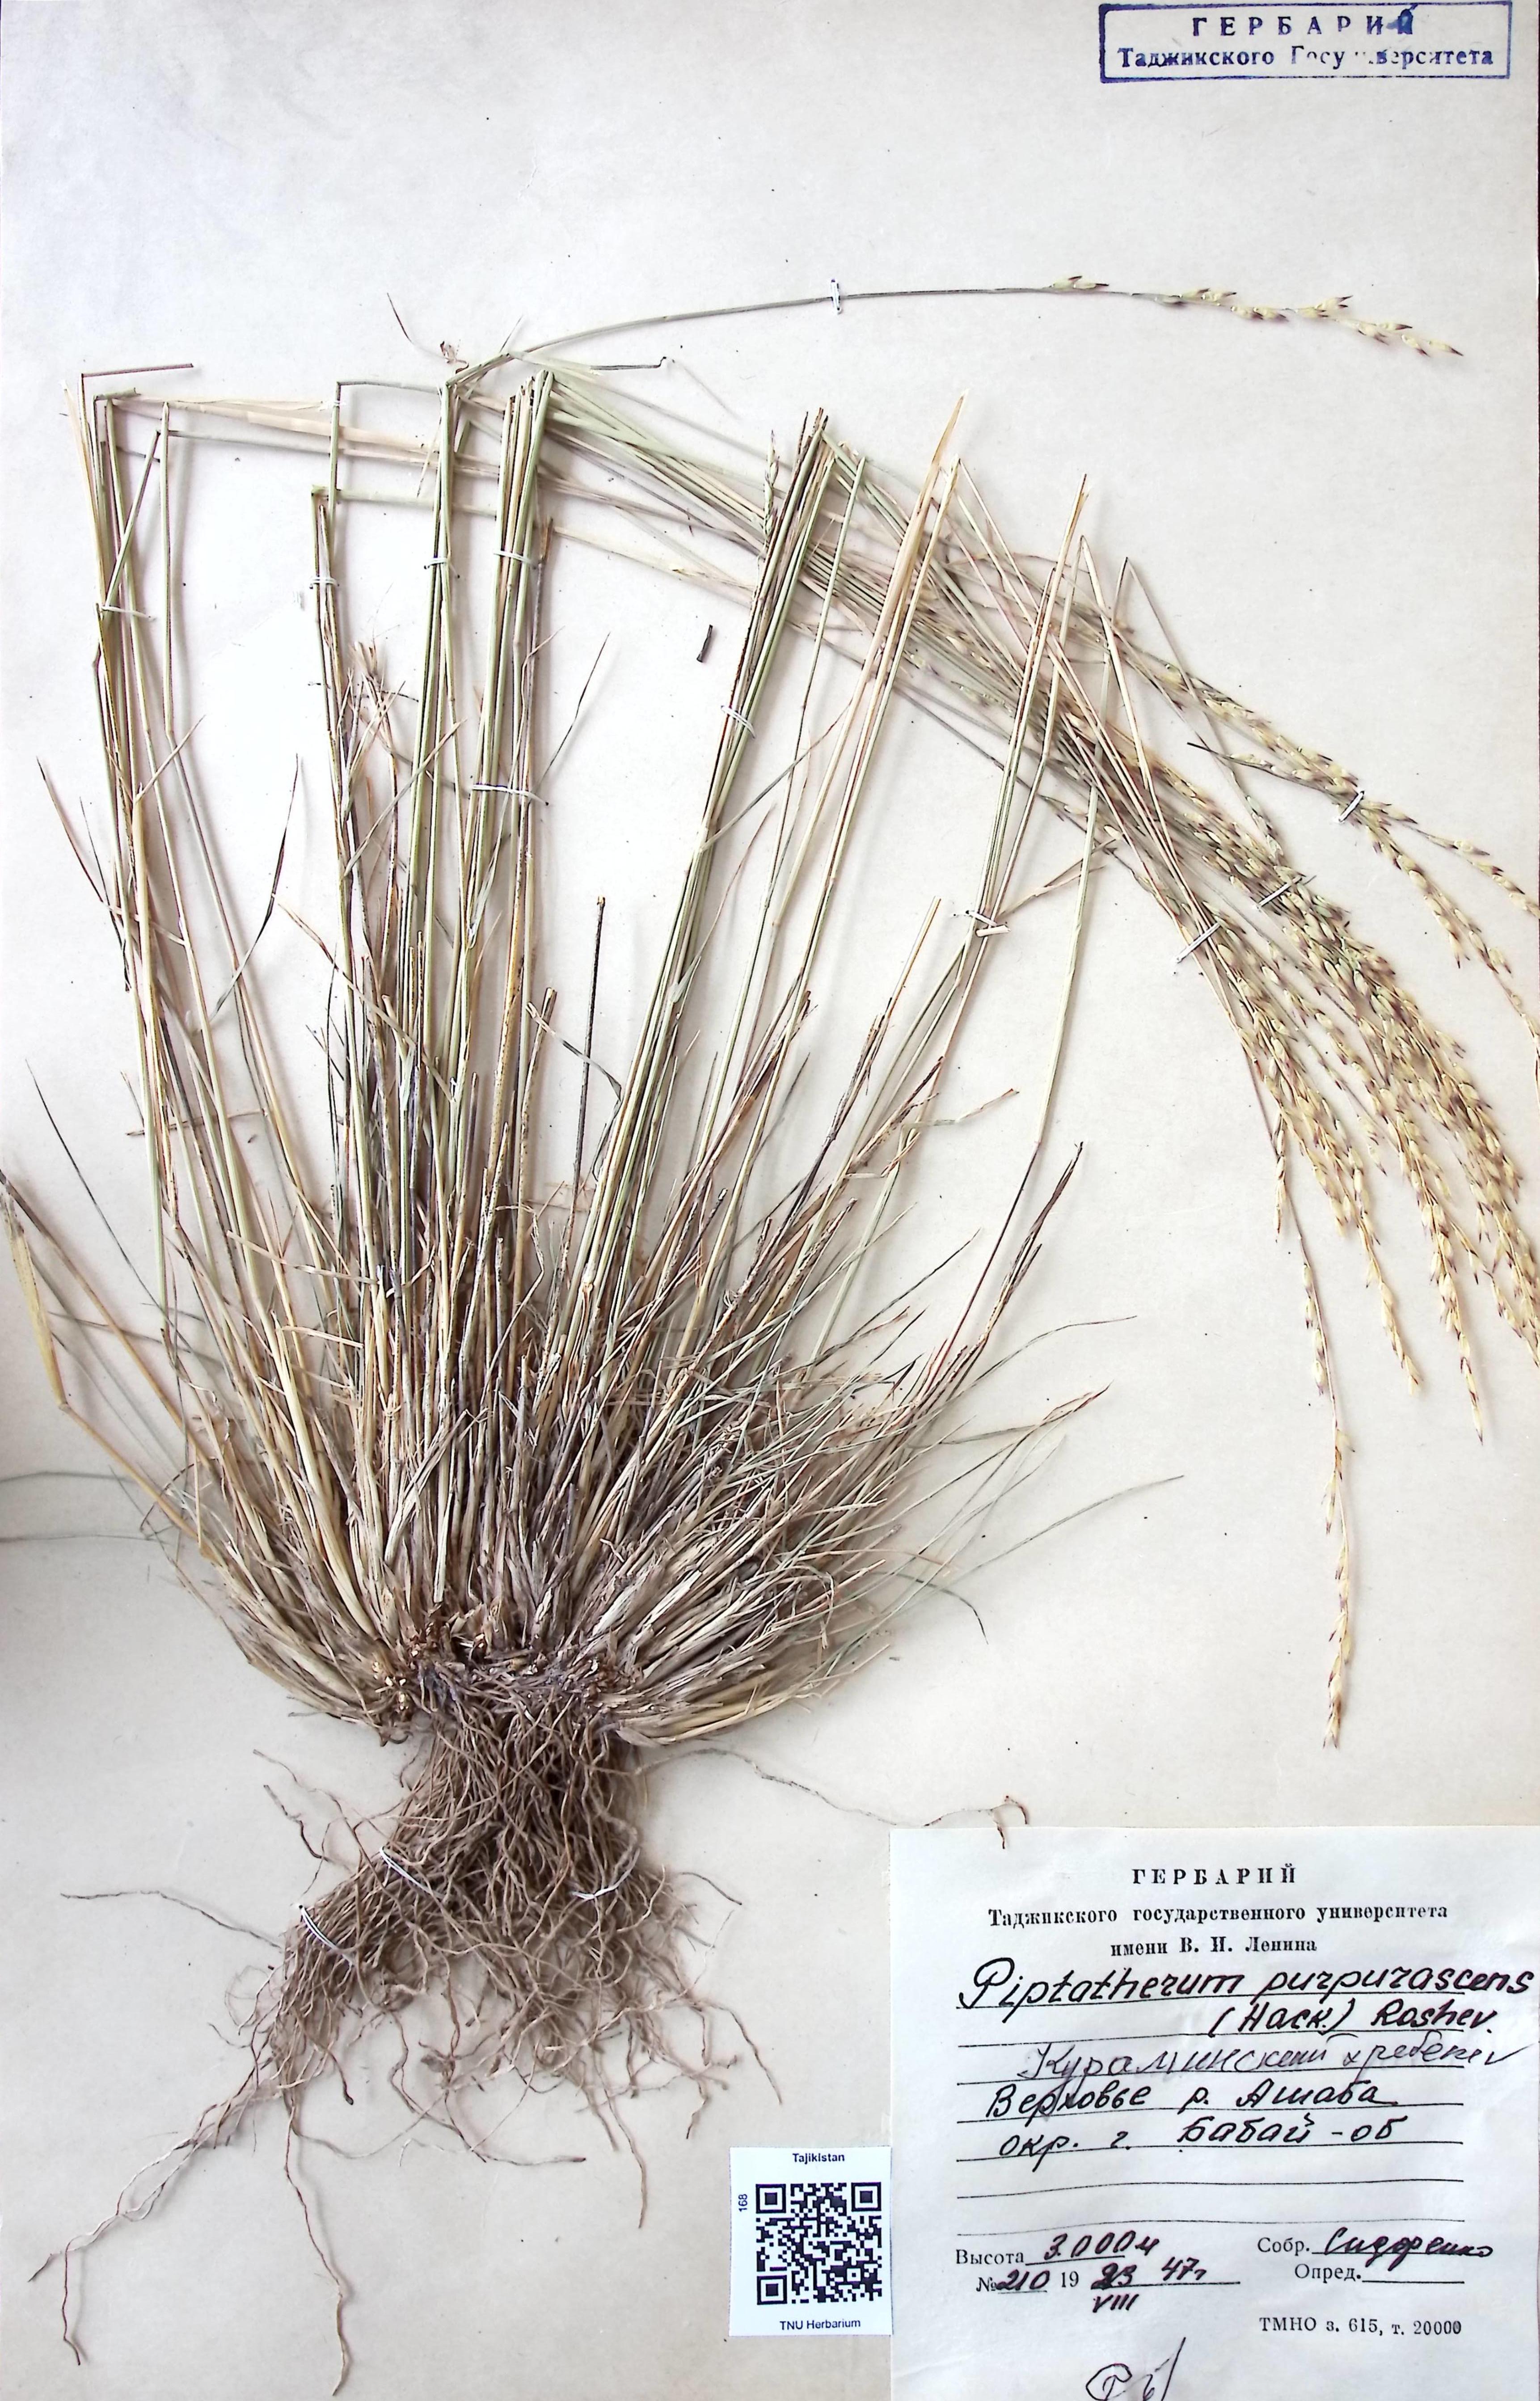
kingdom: Plantae
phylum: Tracheophyta
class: Liliopsida
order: Poales
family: Poaceae
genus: Piptatherum
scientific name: Piptatherum purpurascens
